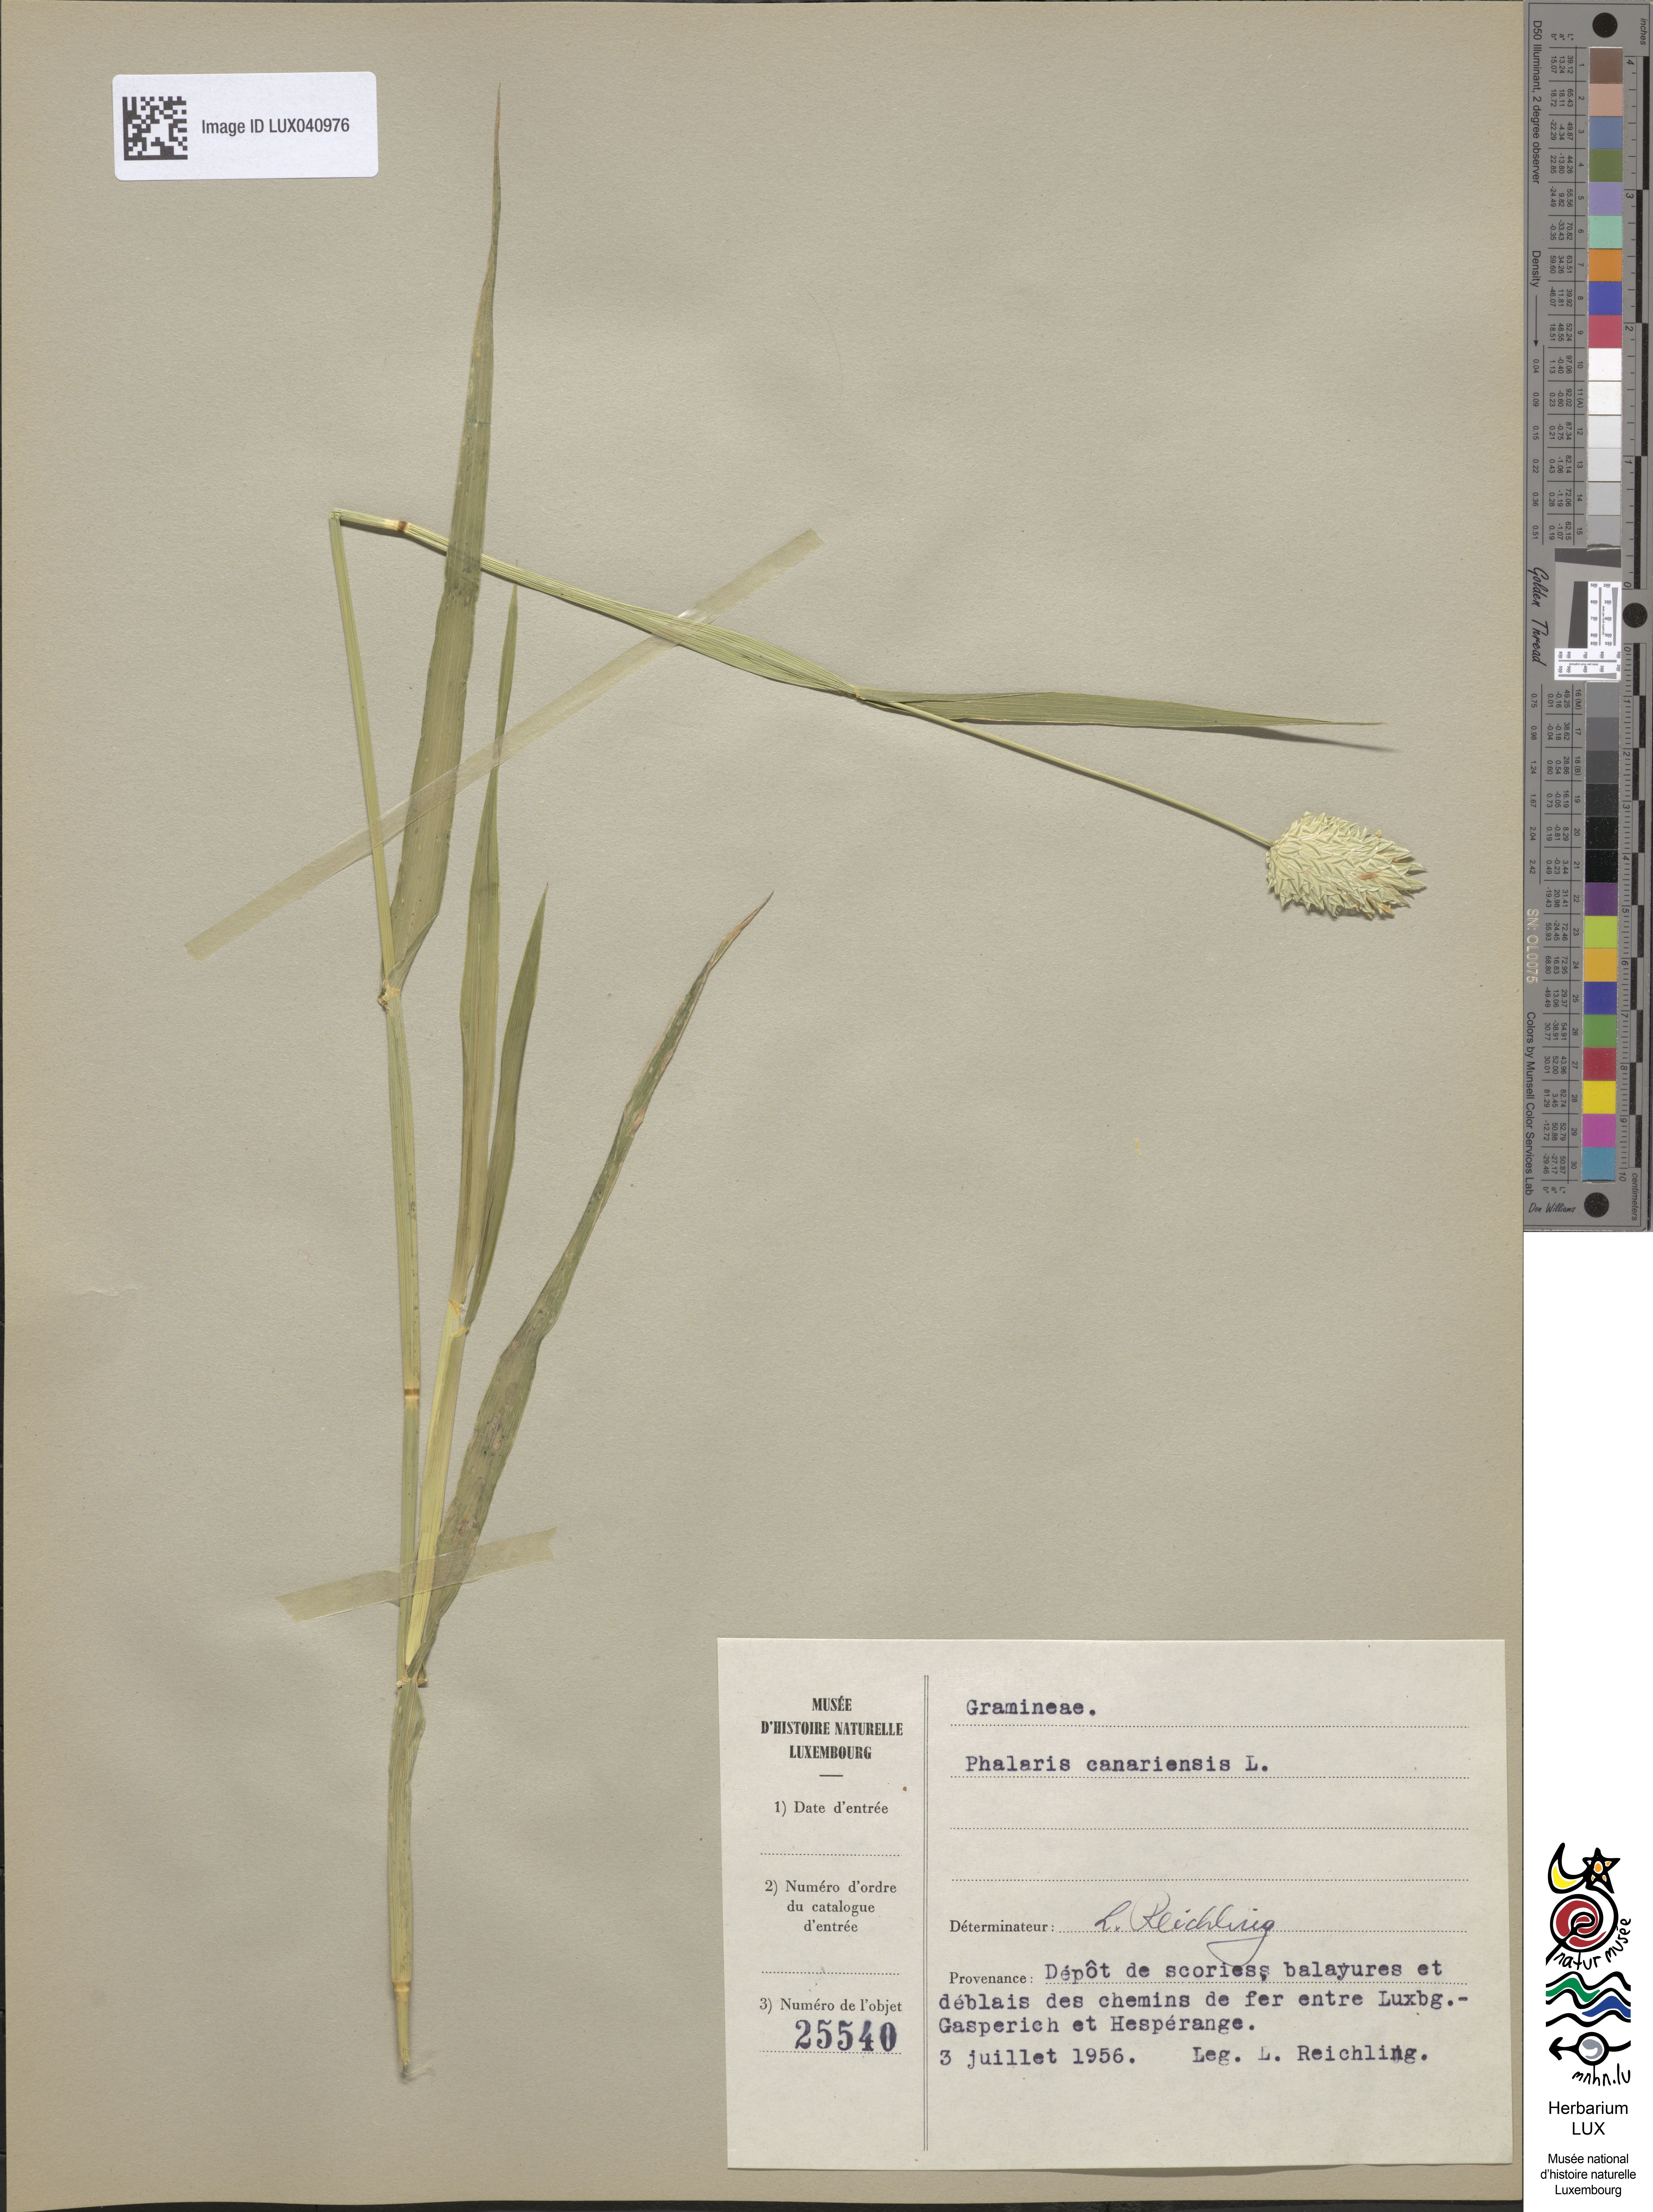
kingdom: Plantae
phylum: Tracheophyta
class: Liliopsida
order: Poales
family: Poaceae
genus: Phalaris
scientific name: Phalaris canariensis
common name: Annual canarygrass
